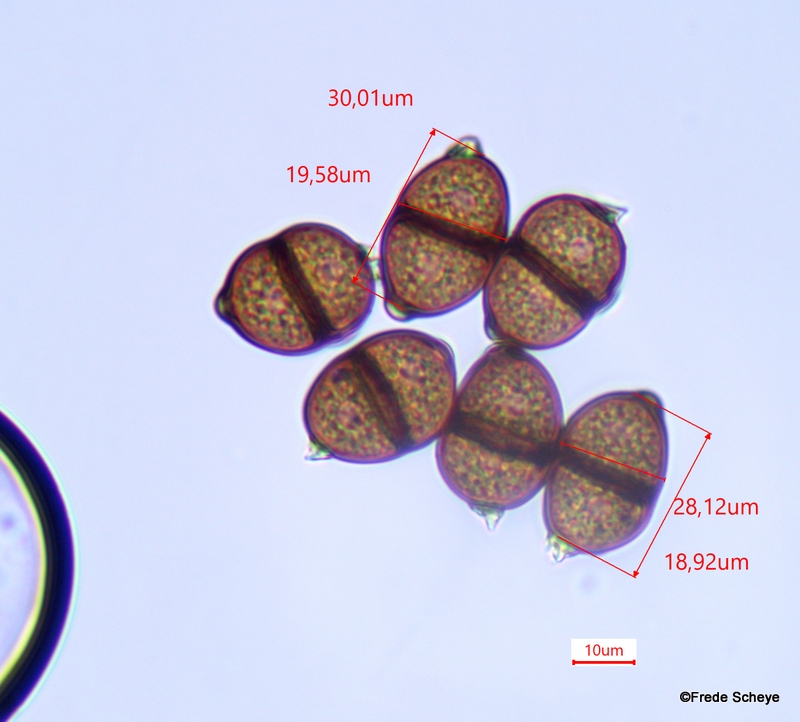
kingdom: Fungi
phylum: Basidiomycota
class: Pucciniomycetes
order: Pucciniales
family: Pucciniaceae
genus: Puccinia
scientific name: Puccinia
